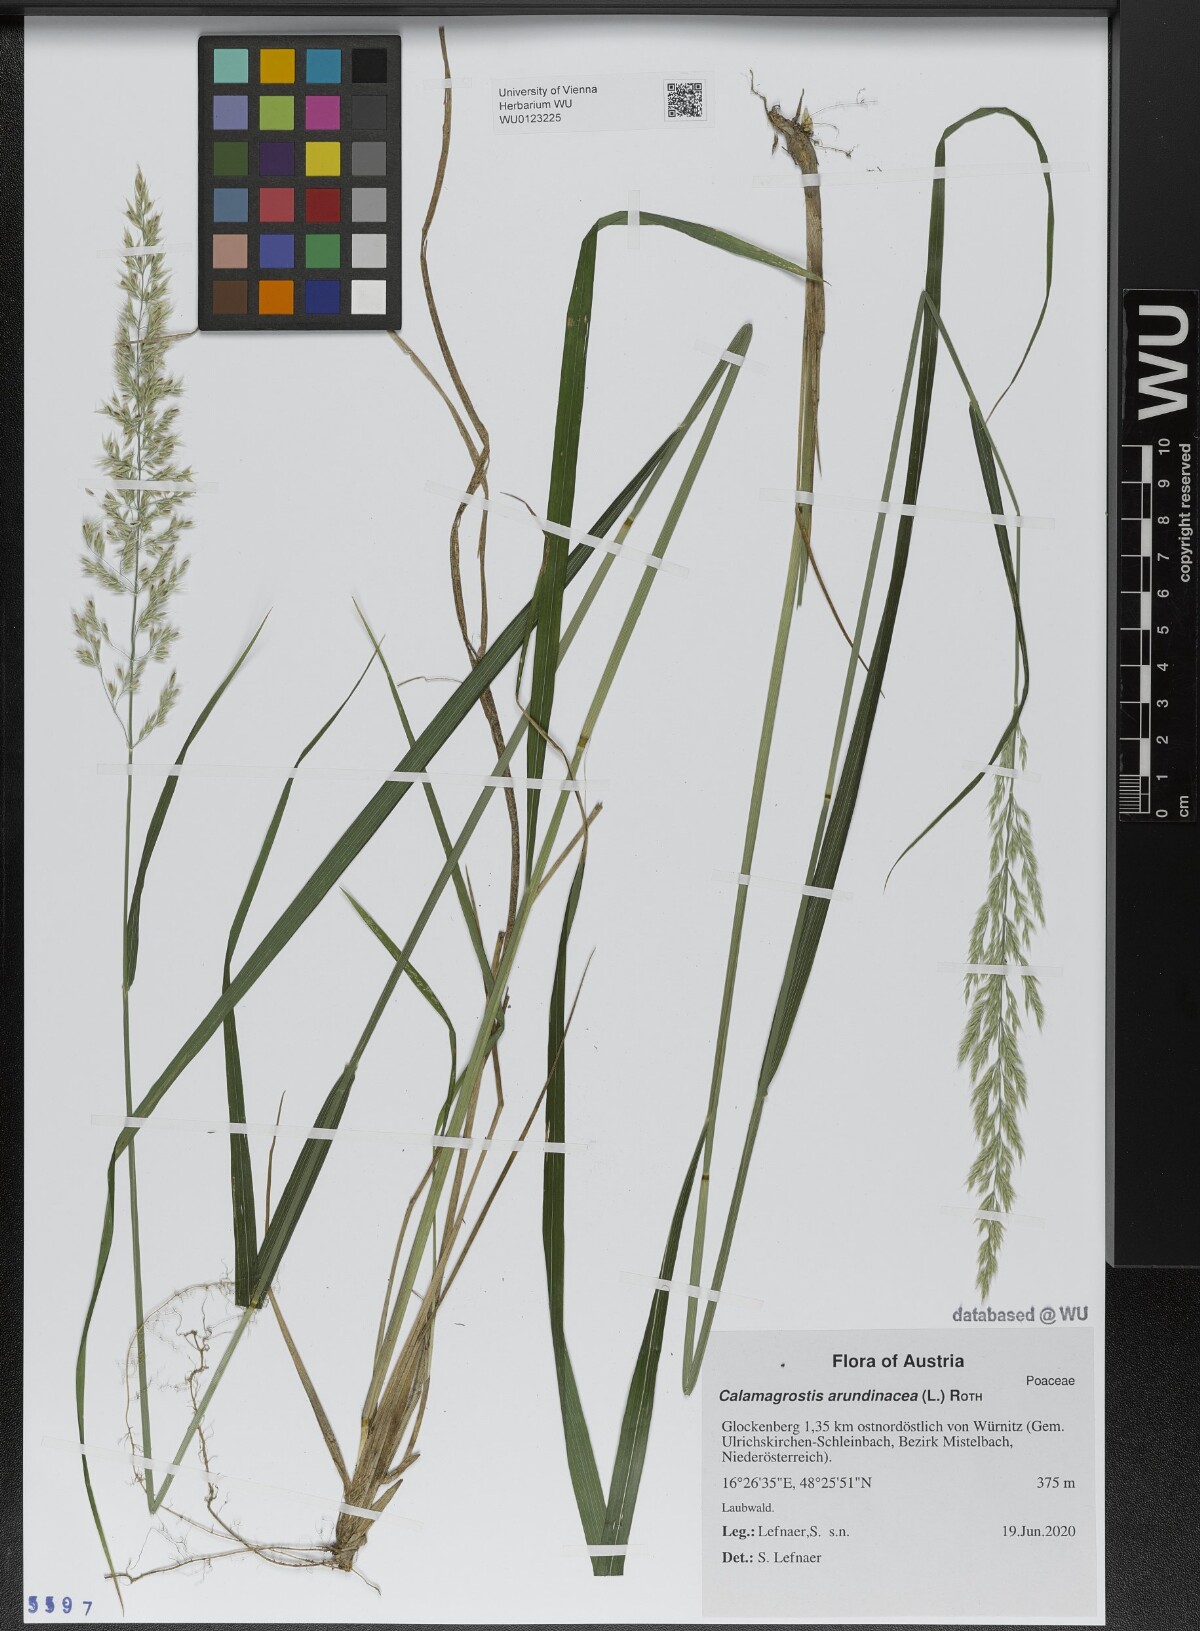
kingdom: Plantae
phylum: Tracheophyta
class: Liliopsida
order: Poales
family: Poaceae
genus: Calamagrostis
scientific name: Calamagrostis arundinacea
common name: Metskastik
